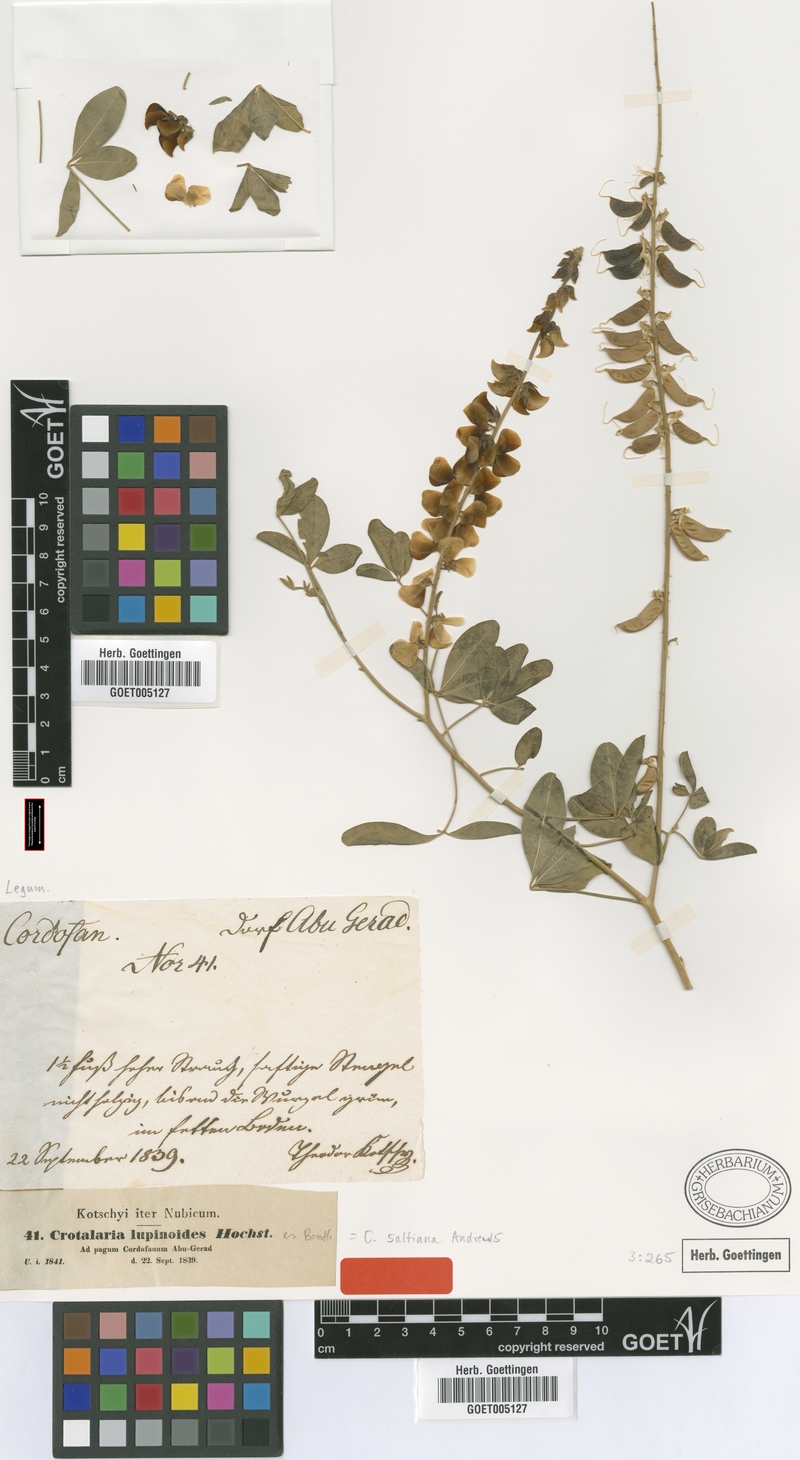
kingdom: Plantae
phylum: Tracheophyta
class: Magnoliopsida
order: Fabales
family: Fabaceae
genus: Crotalaria
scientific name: Crotalaria saltiana
